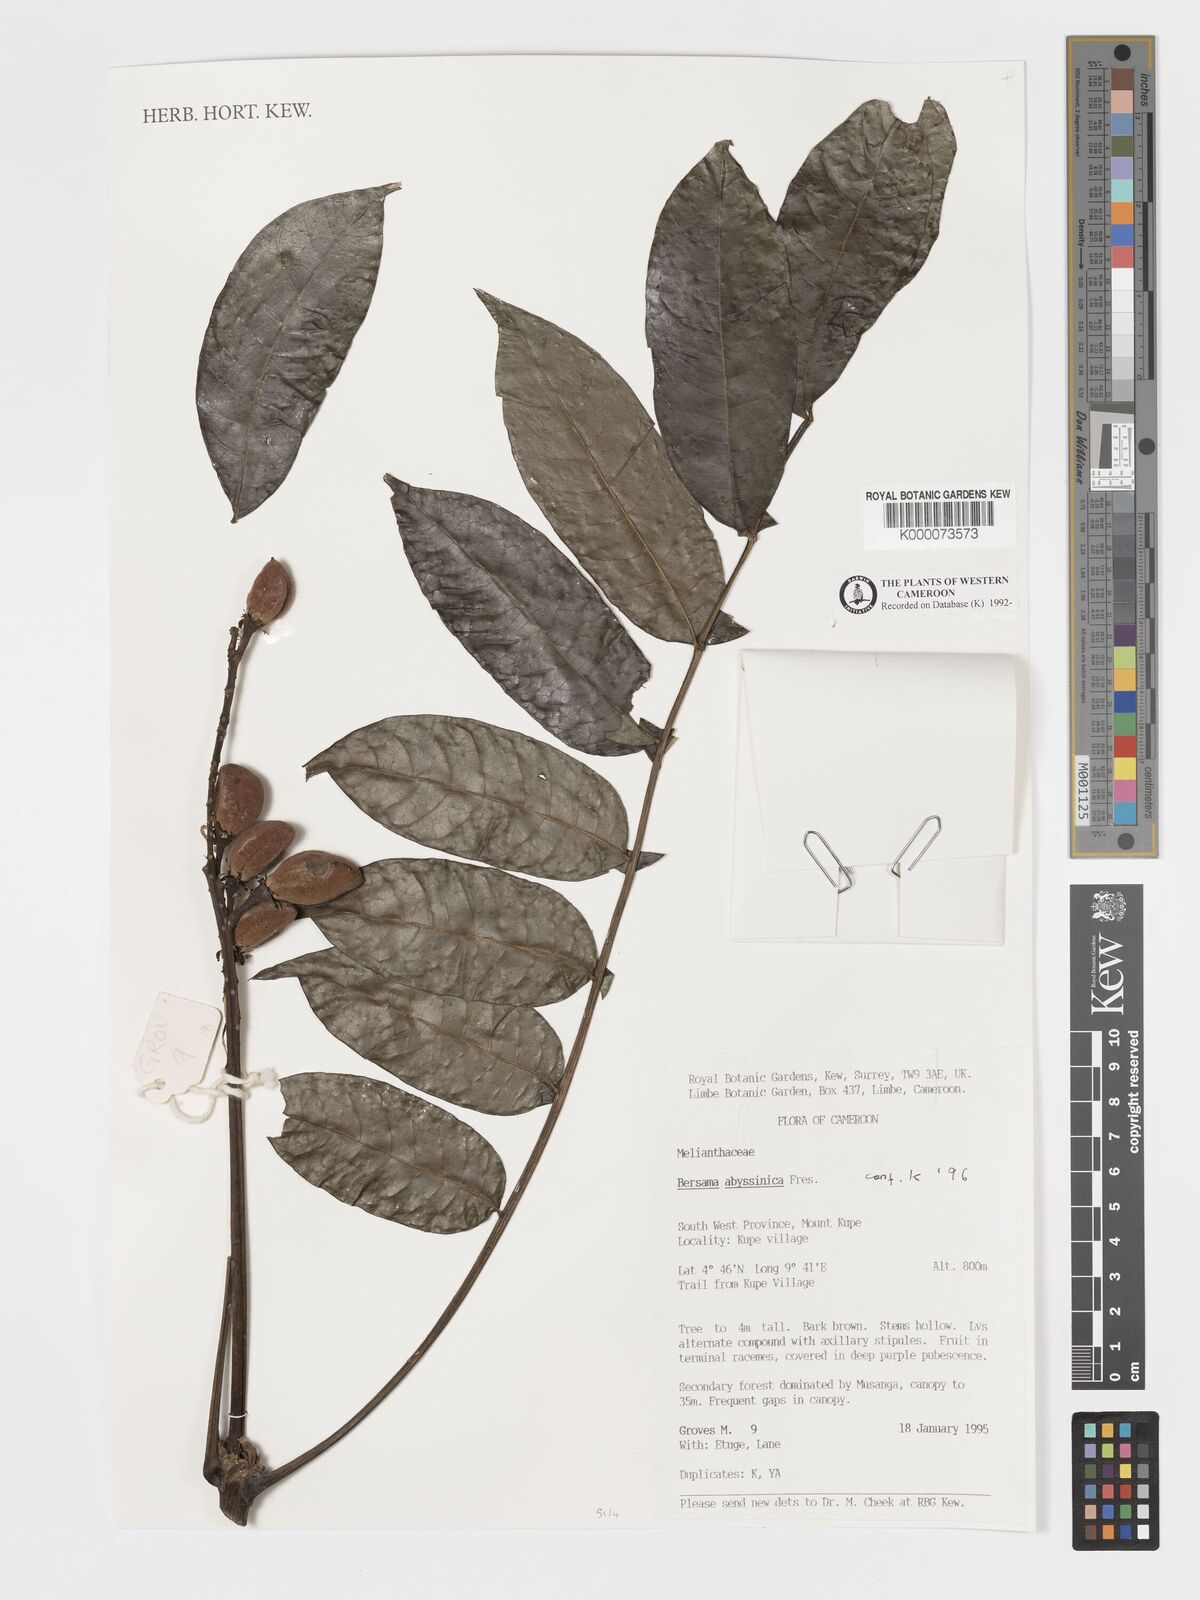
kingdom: Plantae
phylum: Tracheophyta
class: Magnoliopsida
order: Geraniales
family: Melianthaceae
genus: Bersama
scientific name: Bersama abyssinica
